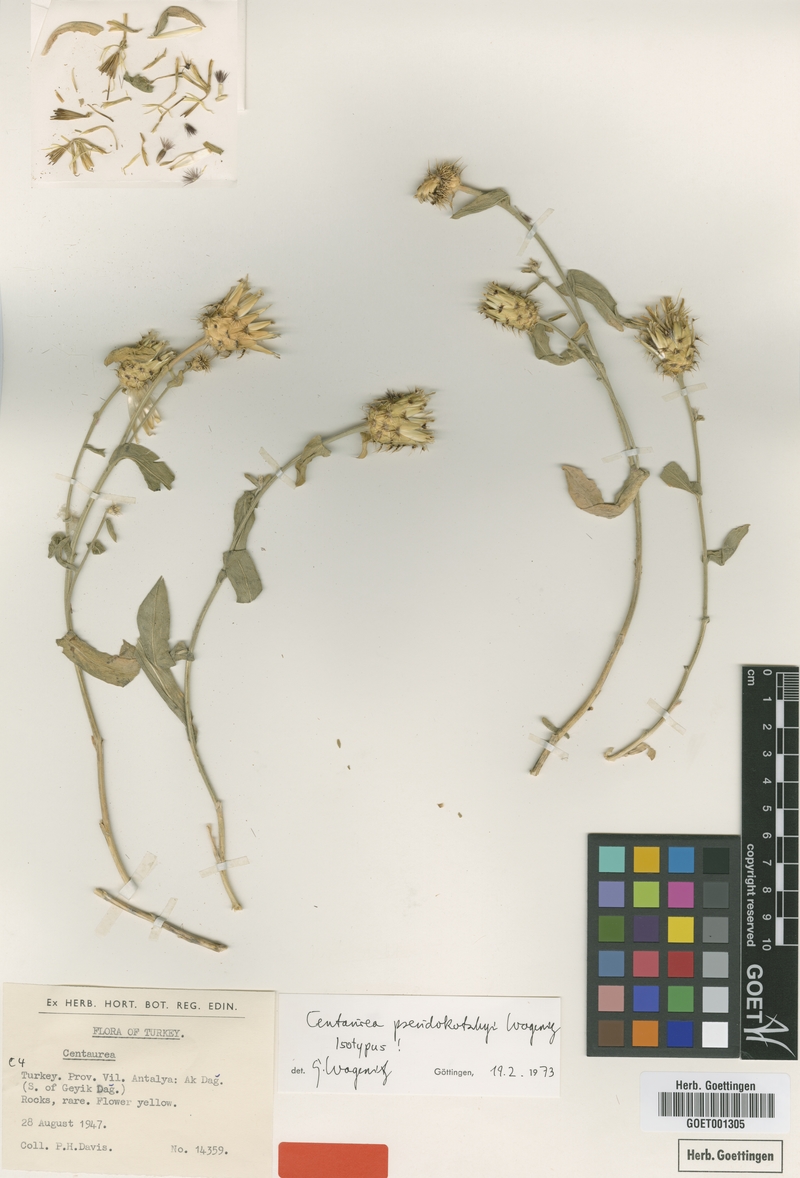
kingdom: Plantae
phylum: Tracheophyta
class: Magnoliopsida
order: Asterales
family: Asteraceae
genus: Centaurea
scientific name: Centaurea pseudokotschyi
